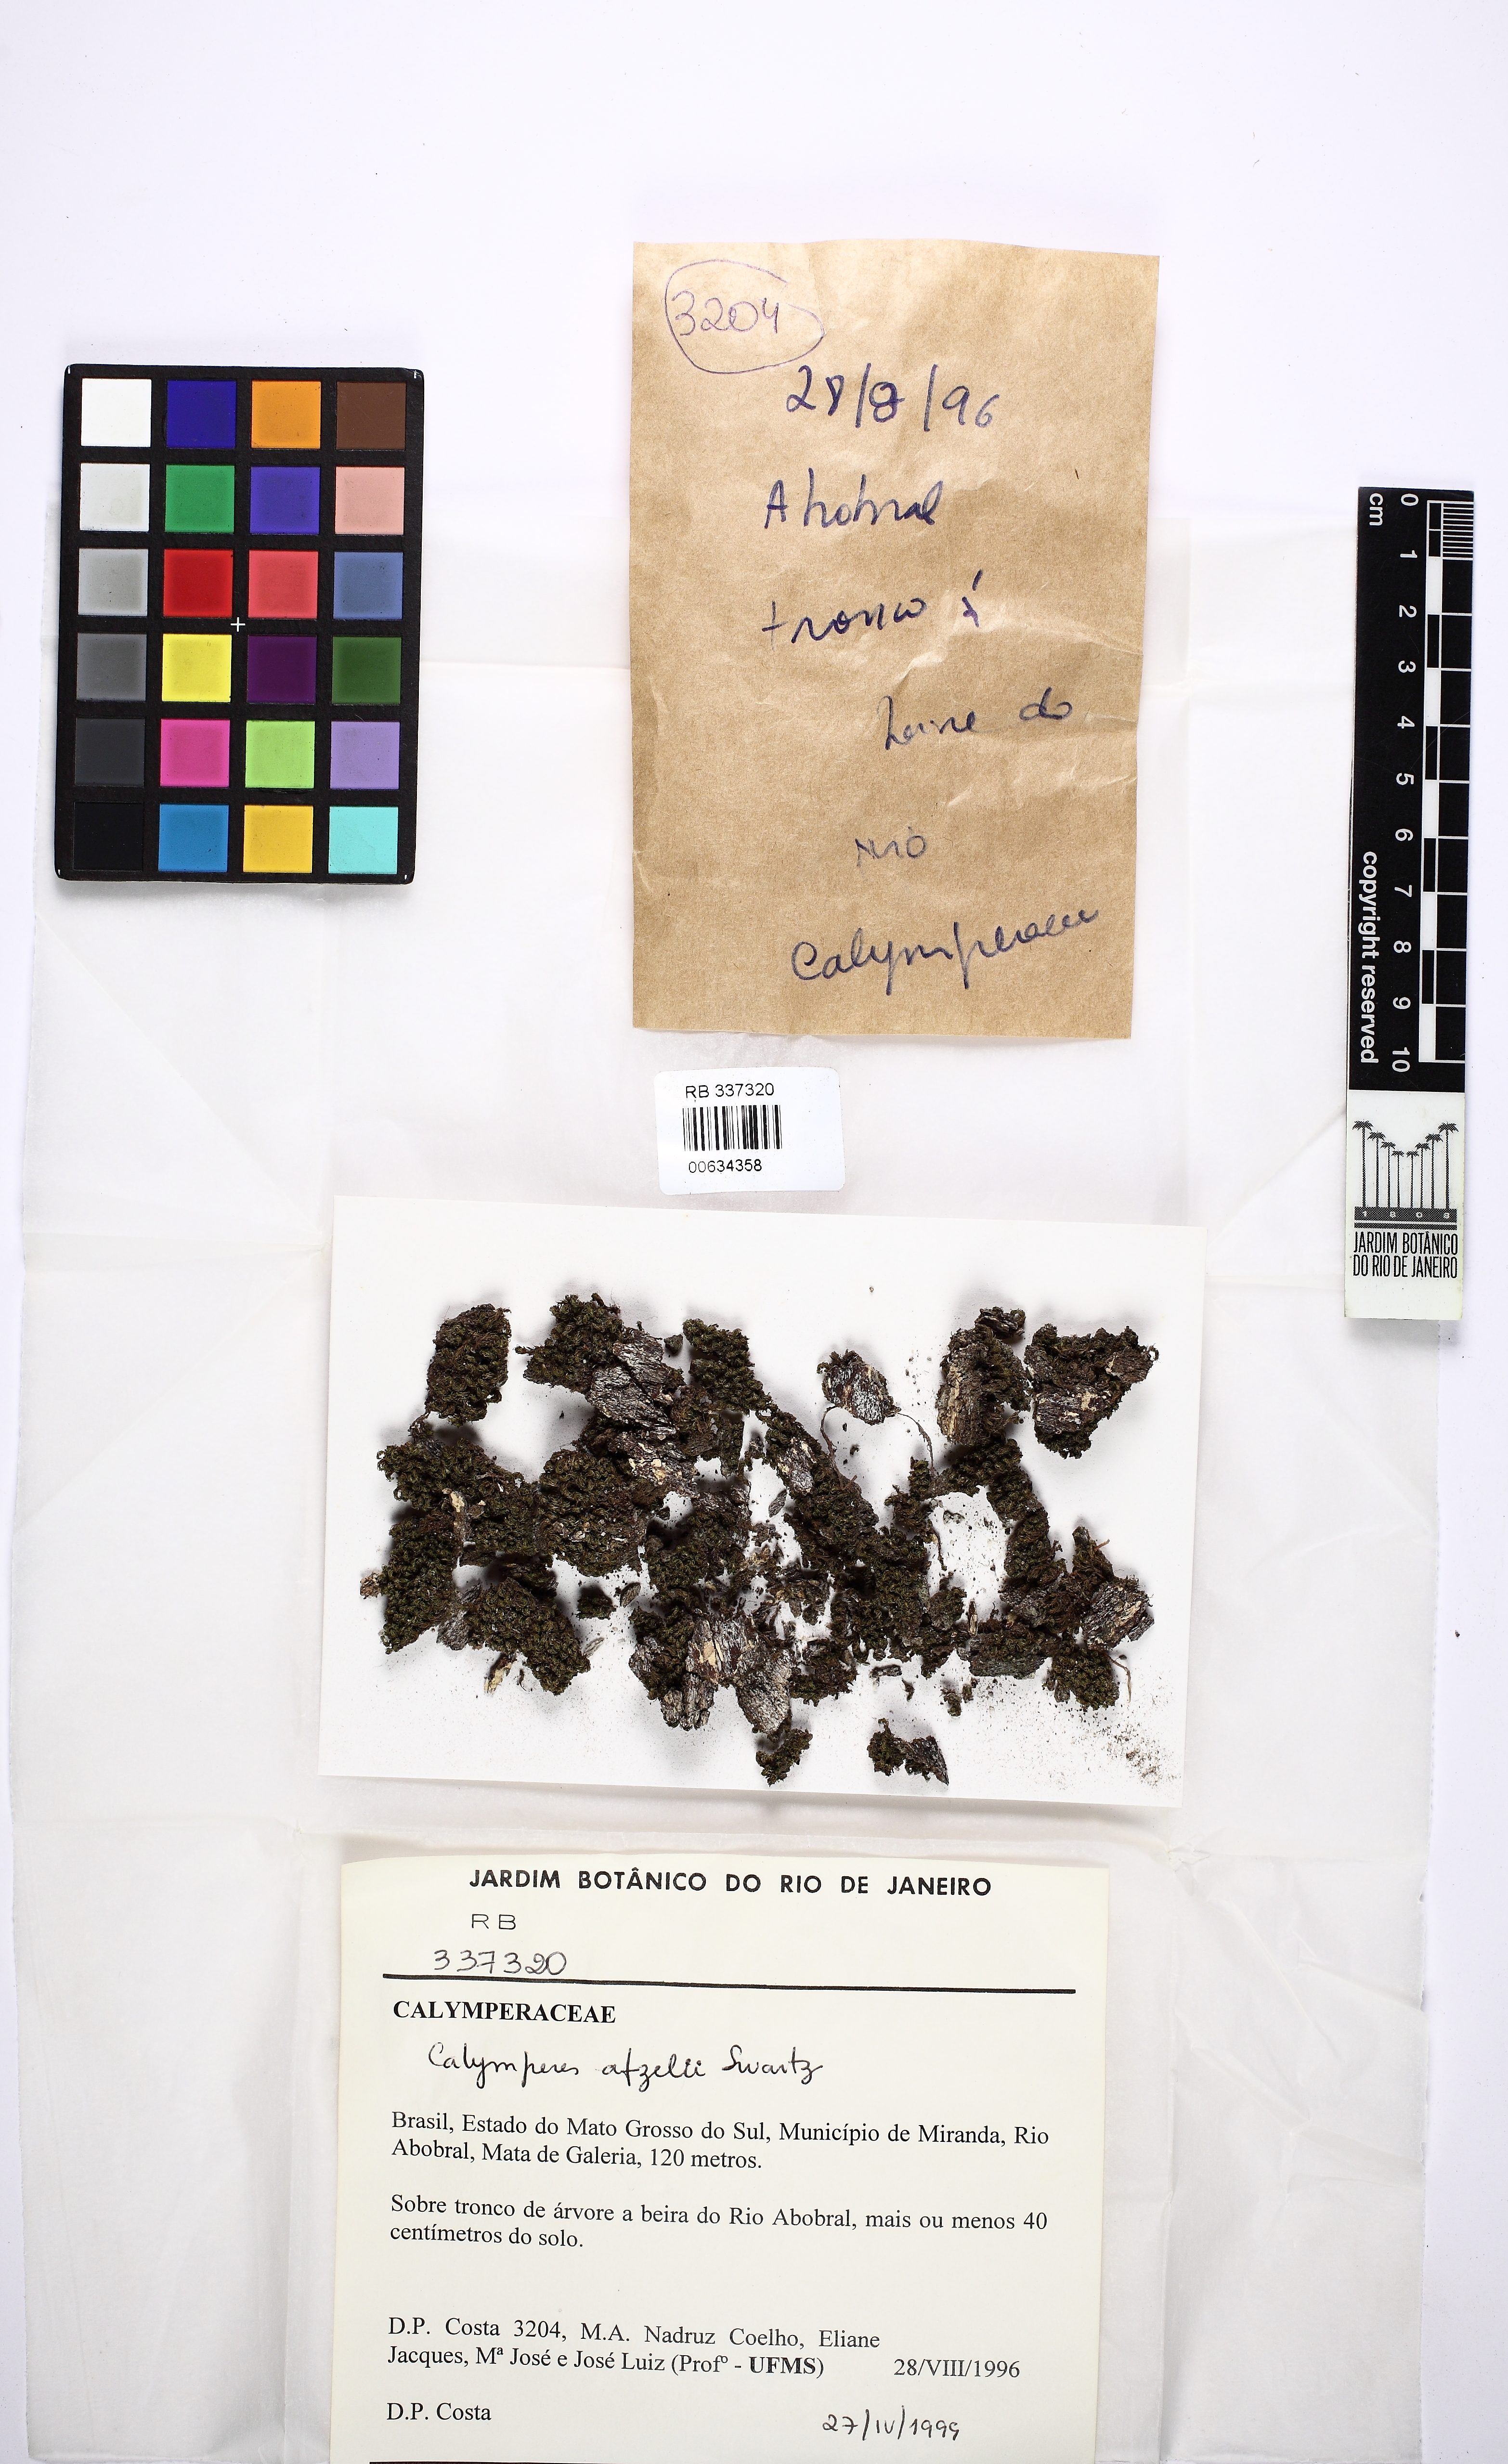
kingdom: Plantae
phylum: Bryophyta
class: Bryopsida
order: Dicranales
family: Calymperaceae
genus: Calymperes
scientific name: Calymperes afzelii
